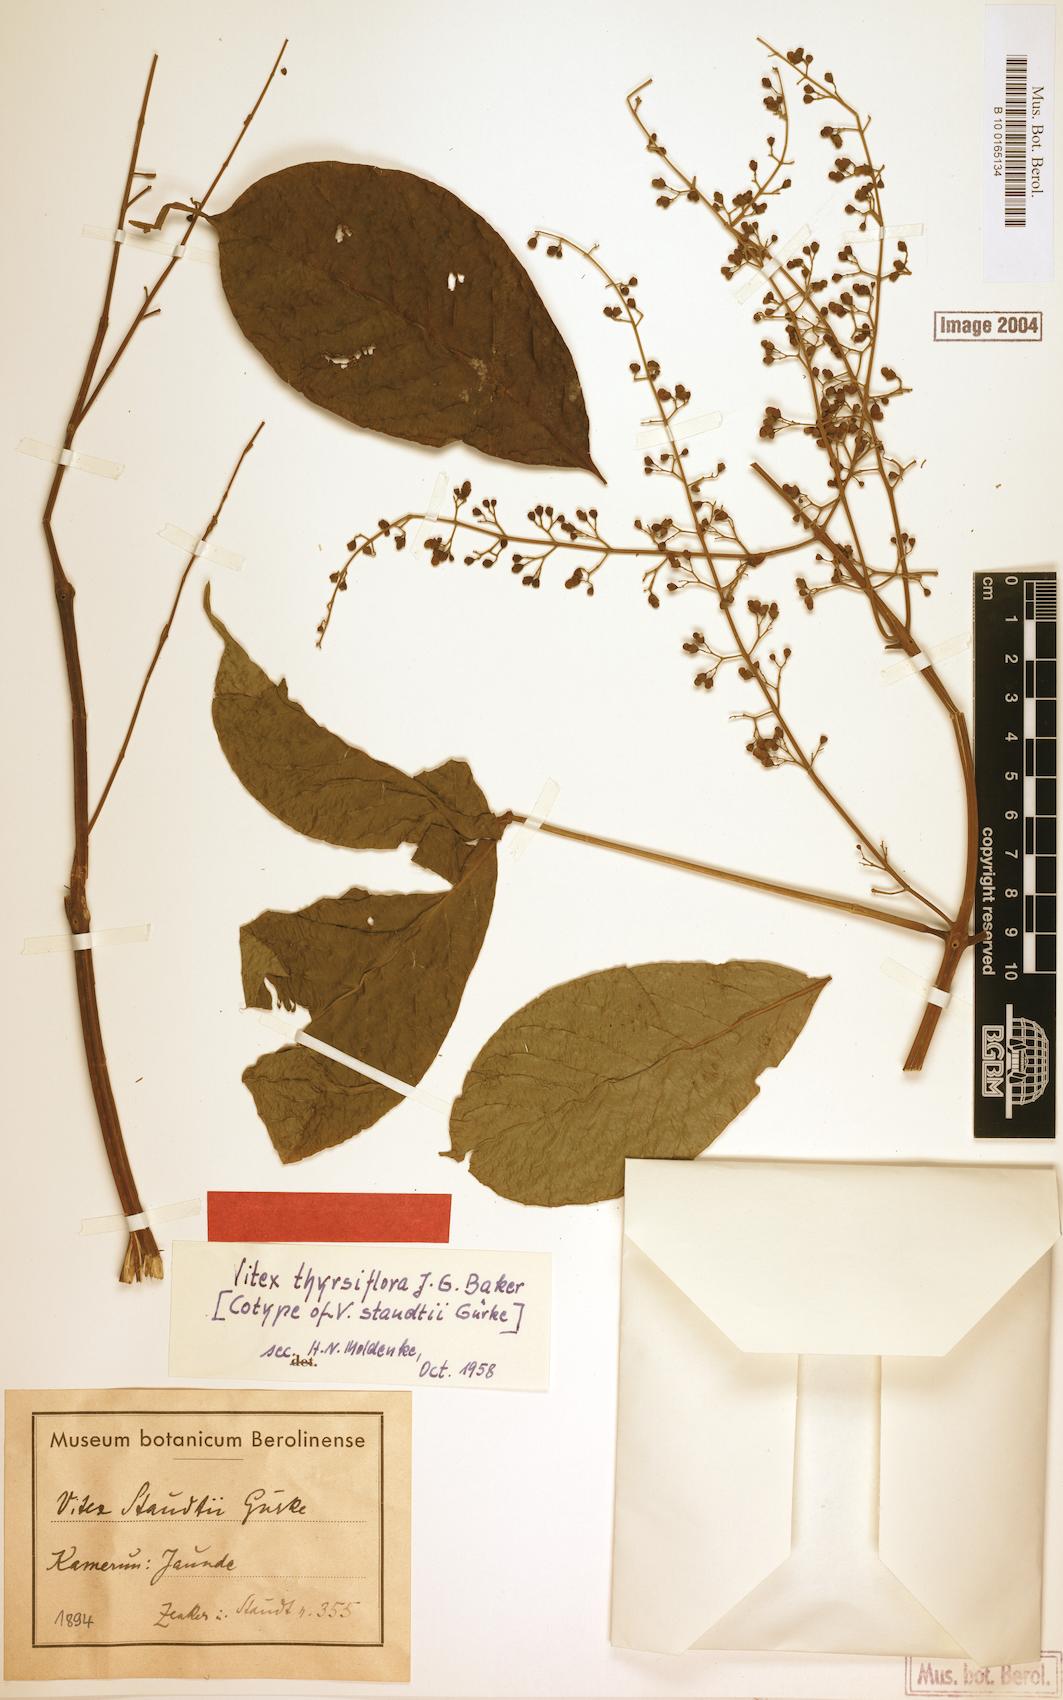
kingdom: Plantae
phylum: Tracheophyta
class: Magnoliopsida
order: Lamiales
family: Lamiaceae
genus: Vitex
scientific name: Vitex thyrsiflora
